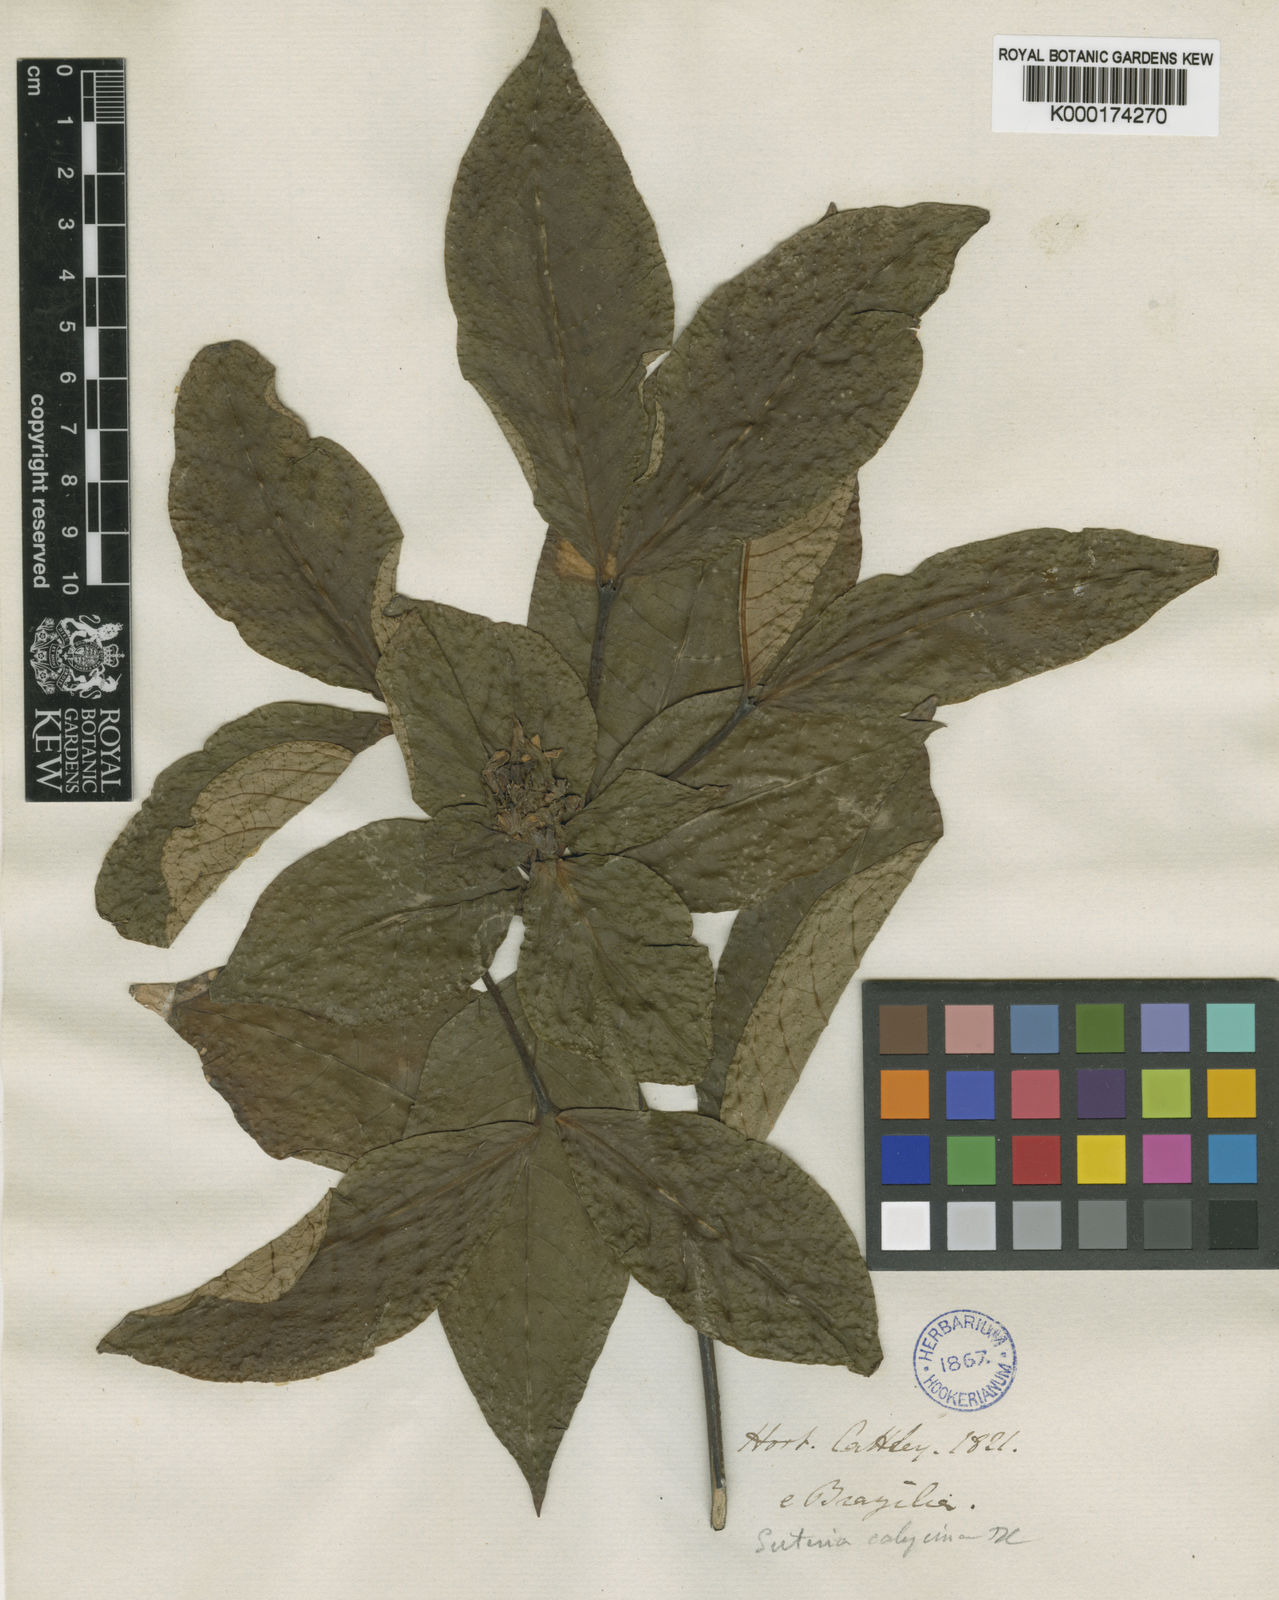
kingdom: Plantae
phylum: Tracheophyta
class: Magnoliopsida
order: Gentianales
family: Rubiaceae
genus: Psychotria
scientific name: Psychotria
